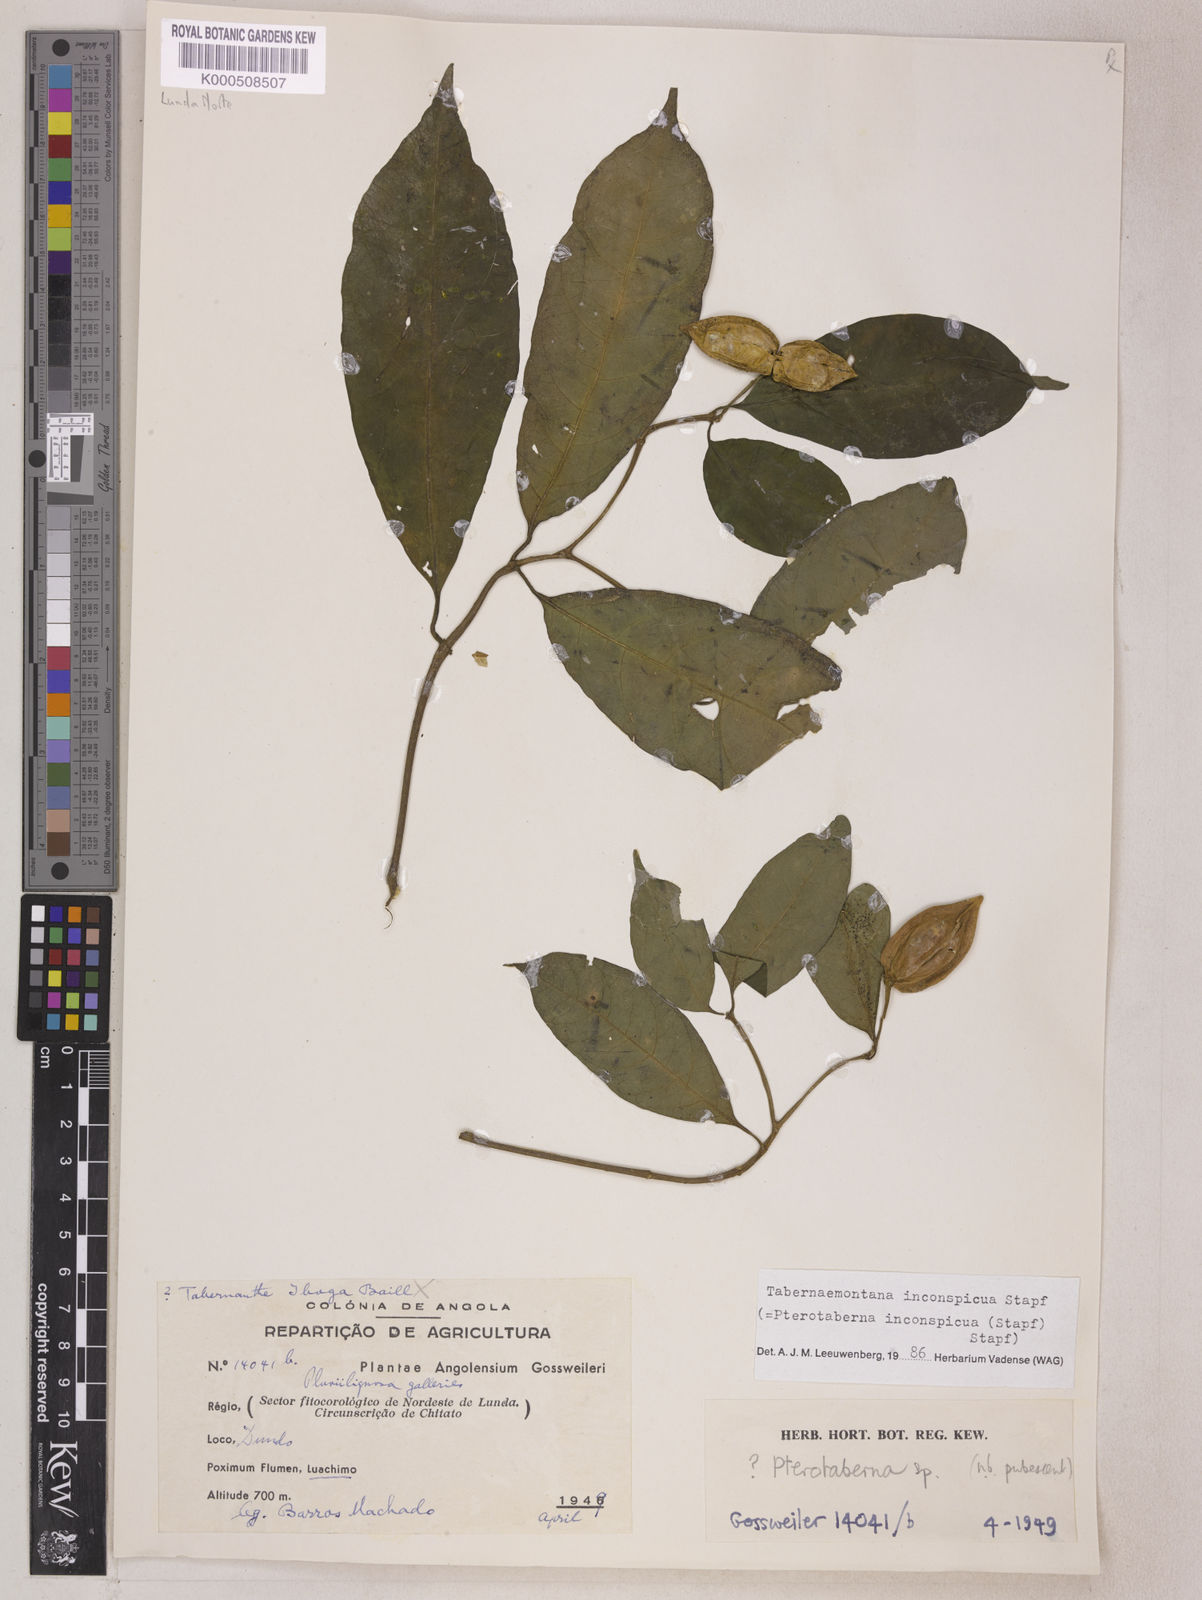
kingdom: Plantae
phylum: Tracheophyta
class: Magnoliopsida
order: Gentianales
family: Apocynaceae
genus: Tabernaemontana
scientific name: Tabernaemontana inconspicua
